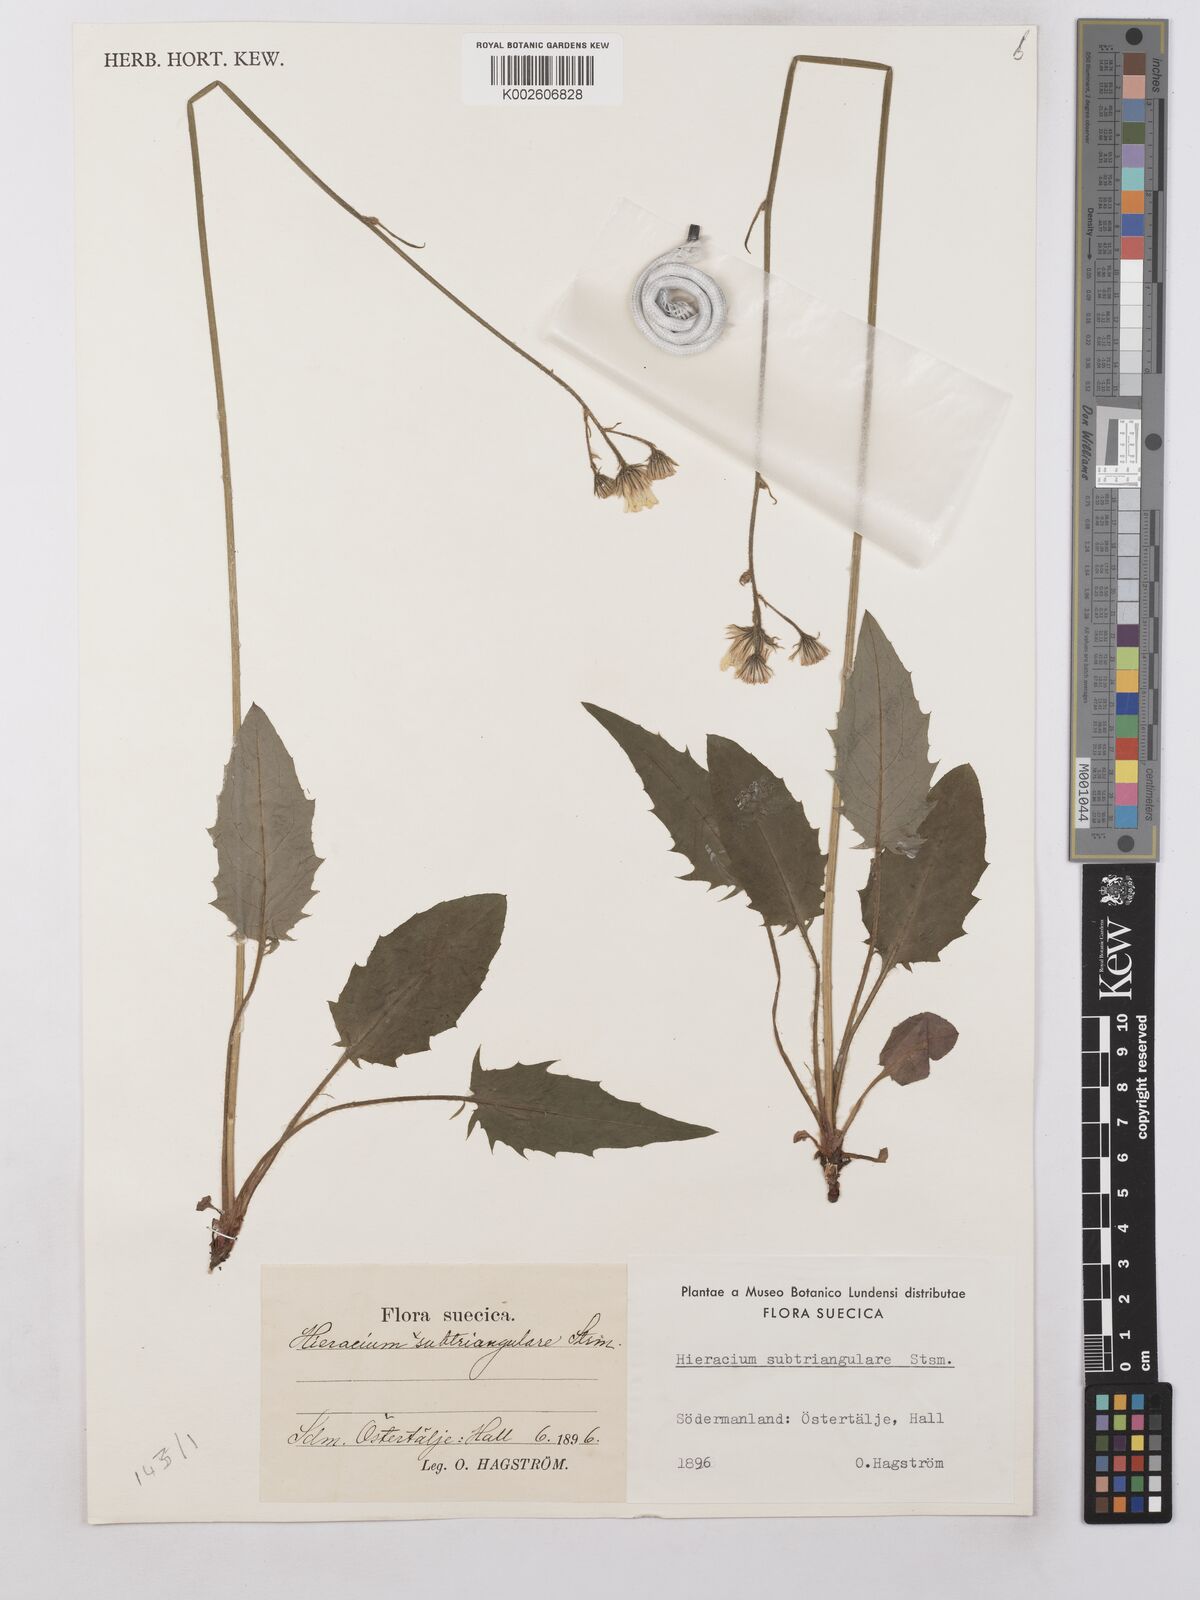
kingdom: Plantae
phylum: Tracheophyta
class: Magnoliopsida
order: Asterales
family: Asteraceae
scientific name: Asteraceae
